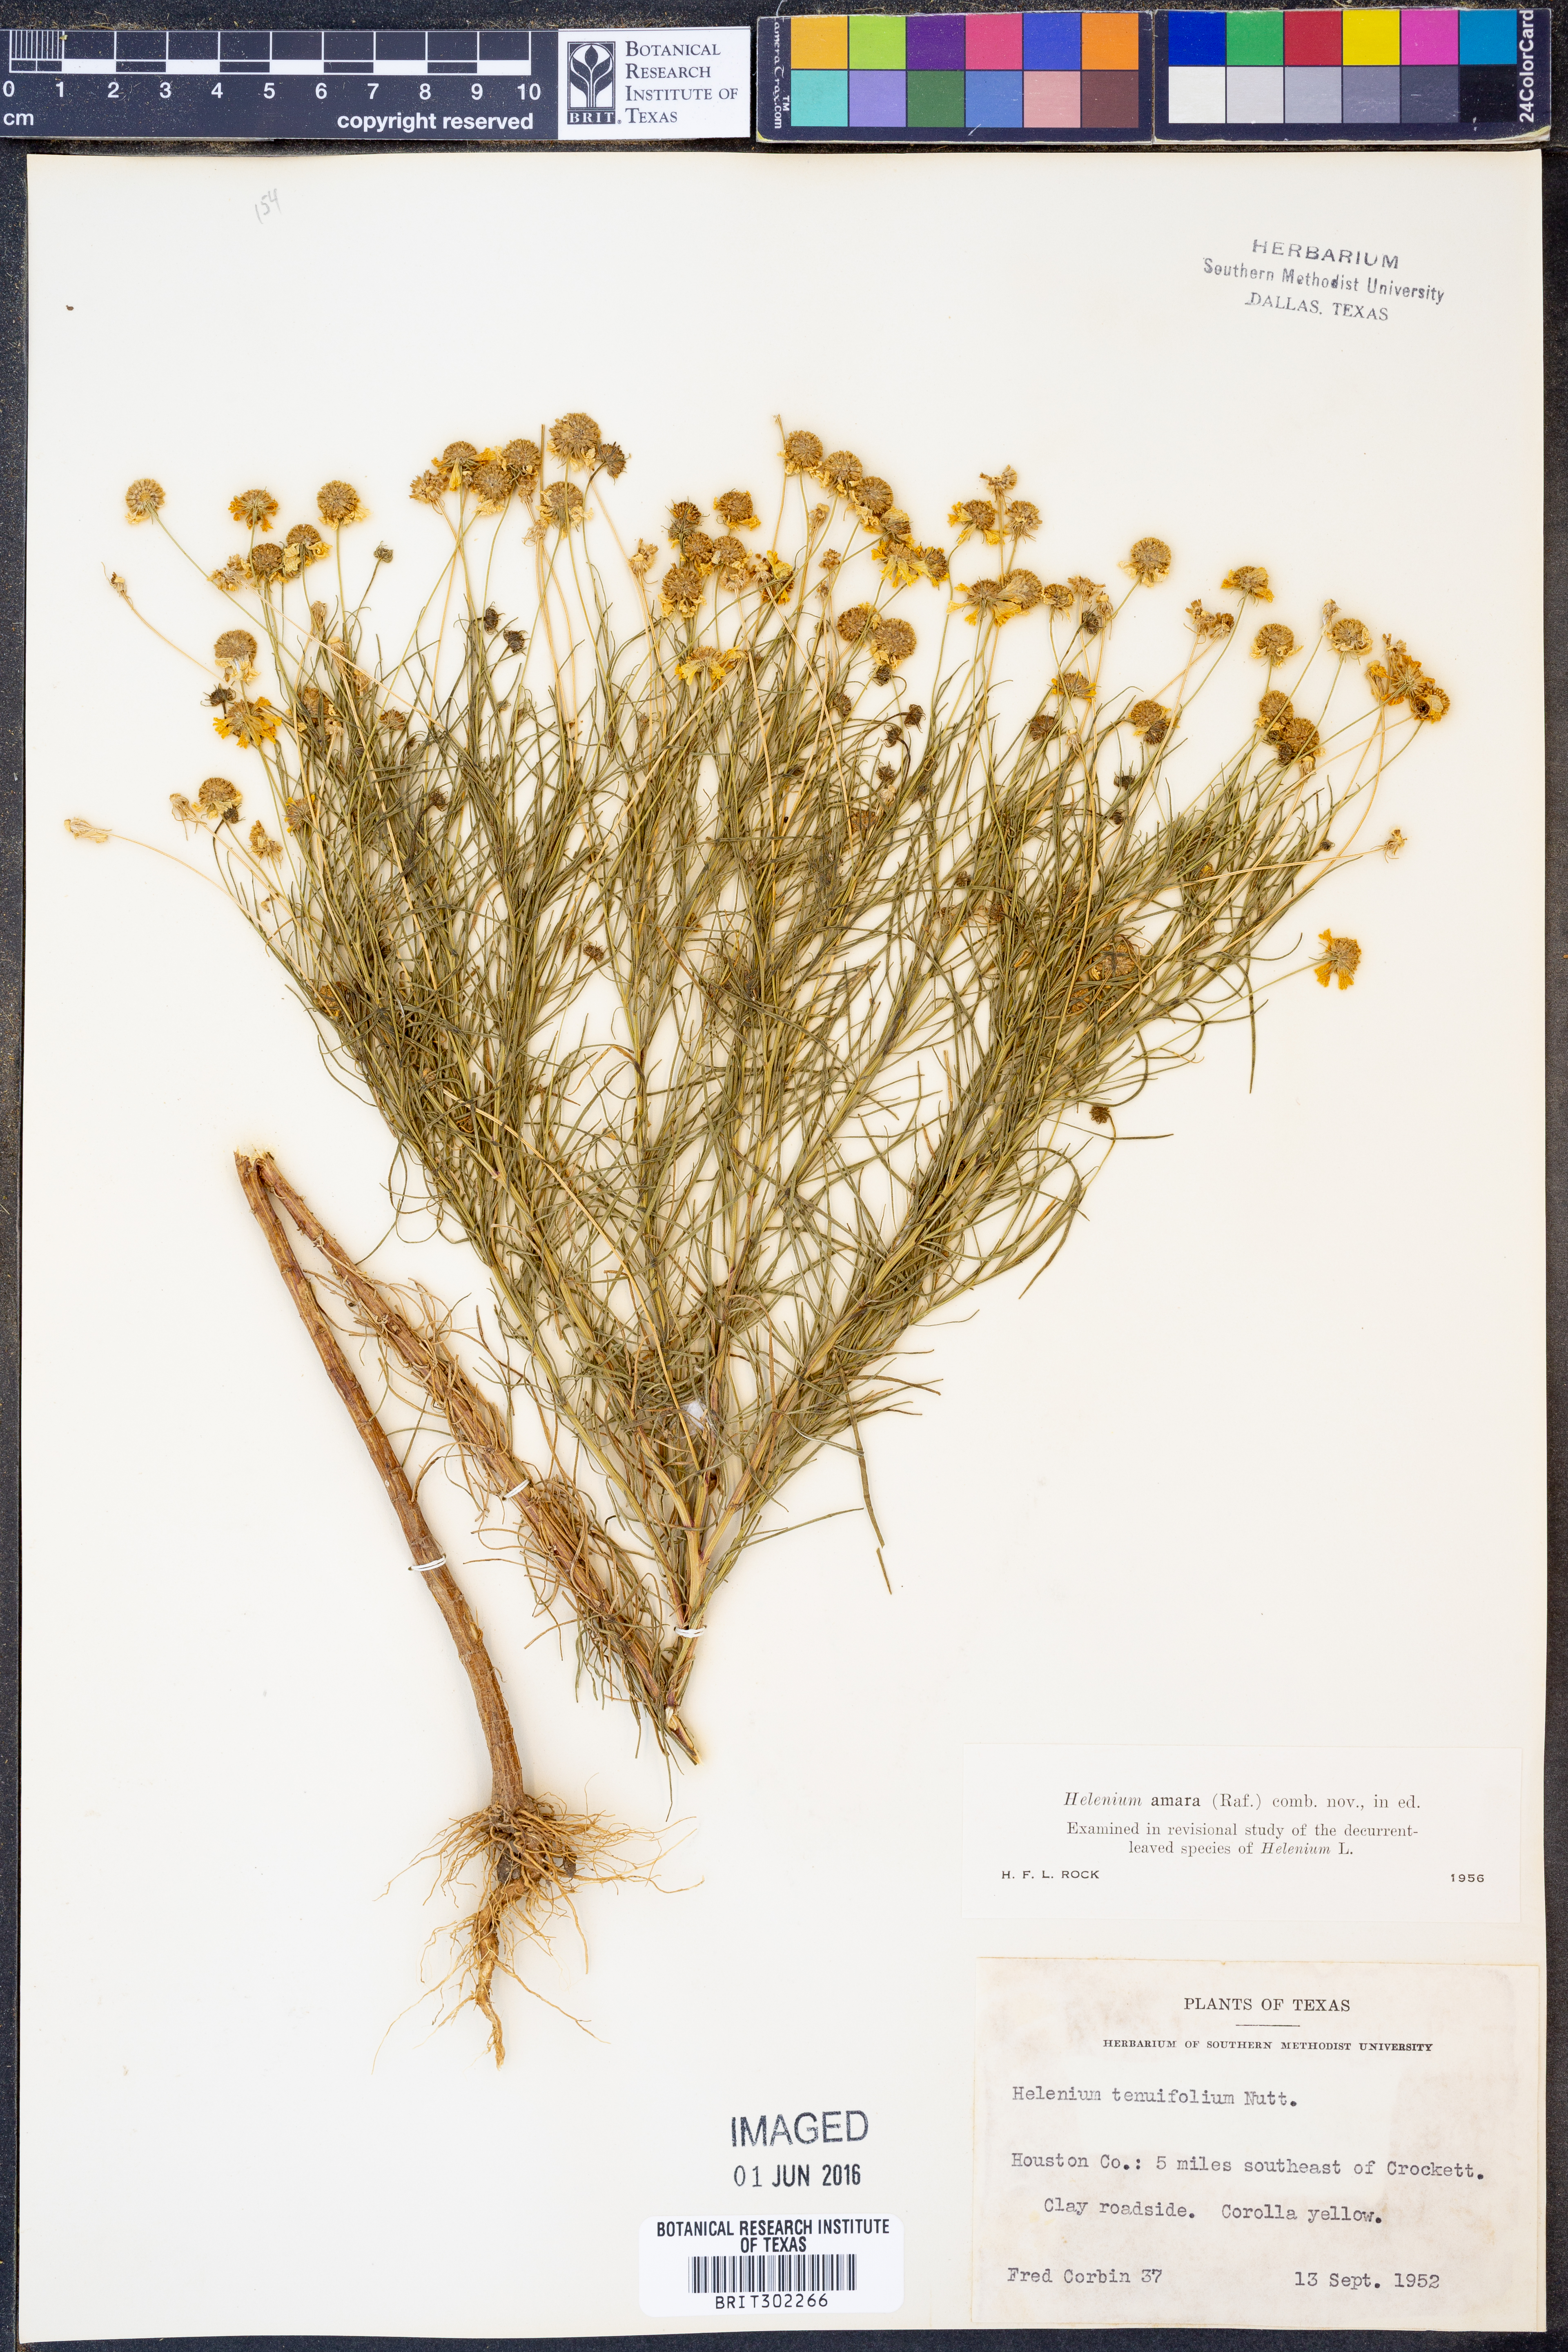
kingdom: Plantae
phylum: Tracheophyta
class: Magnoliopsida
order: Asterales
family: Asteraceae
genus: Helenium
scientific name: Helenium amarum
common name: Bitter sneezeweed
